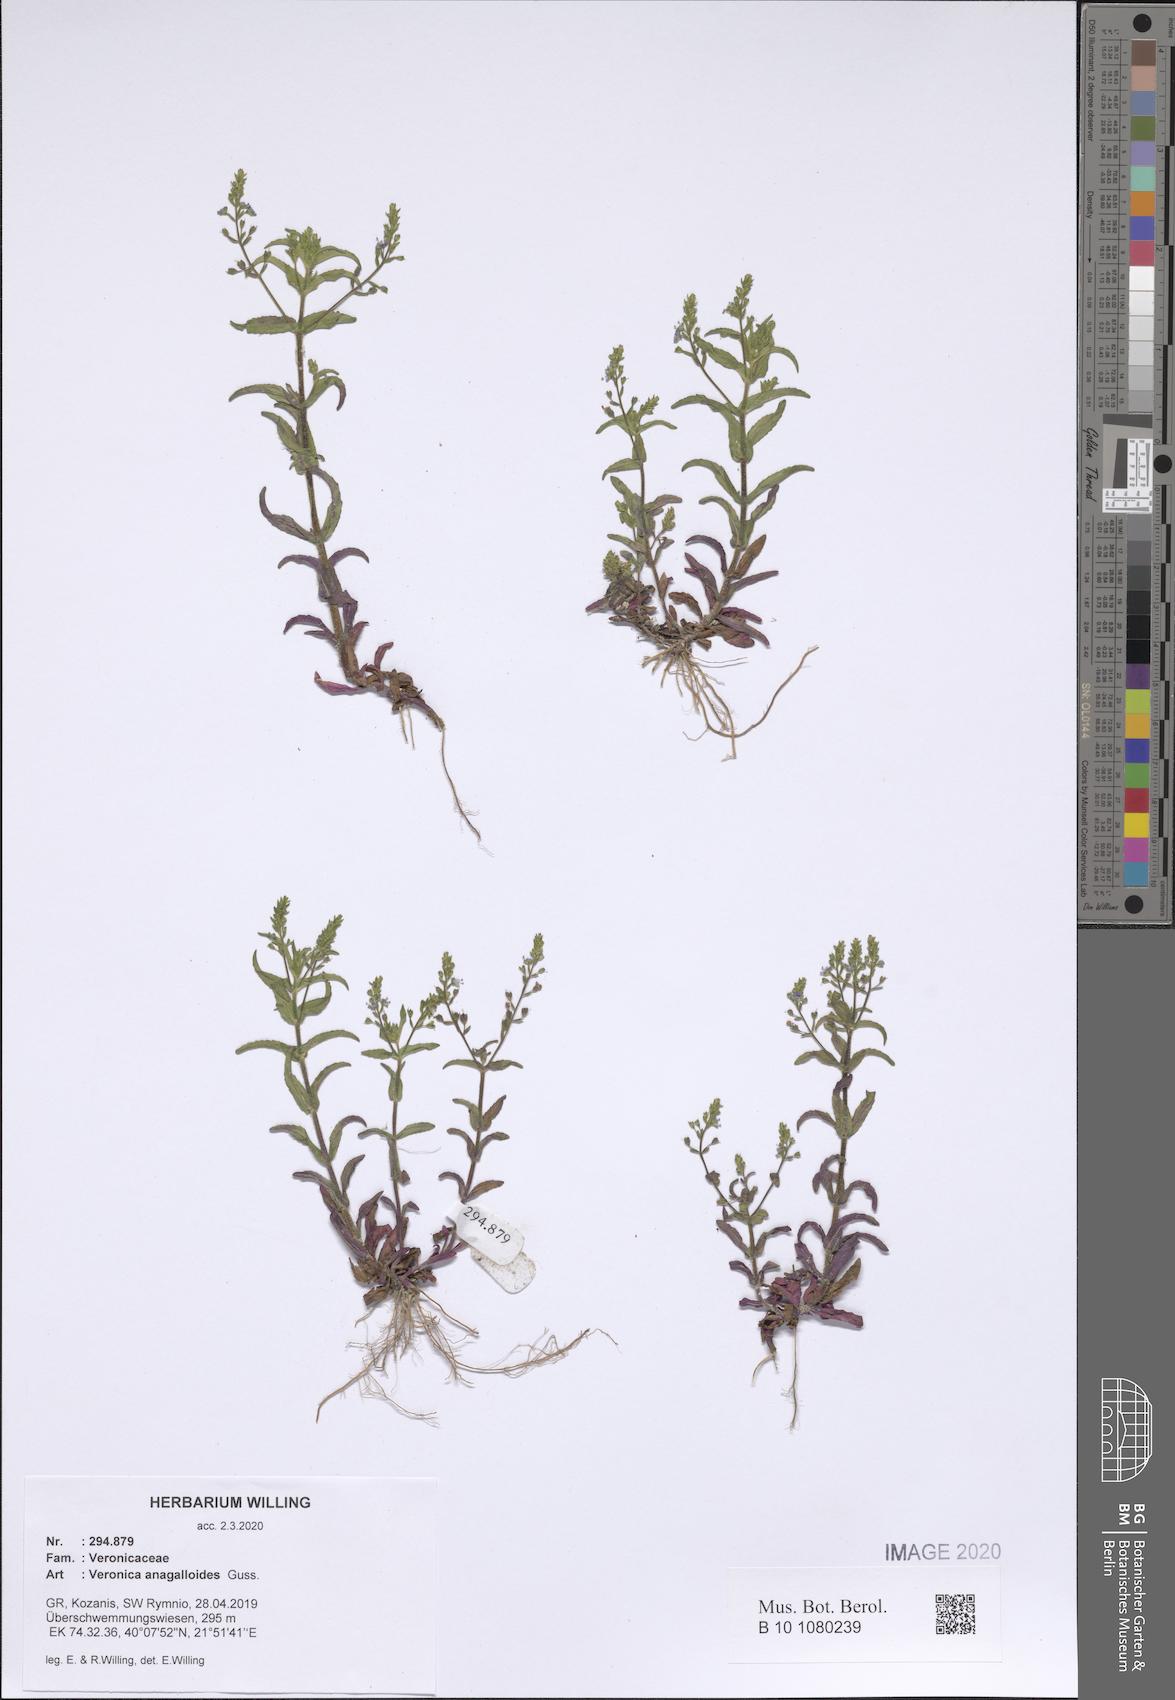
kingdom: Plantae
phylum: Tracheophyta
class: Magnoliopsida
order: Lamiales
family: Plantaginaceae
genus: Veronica
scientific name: Veronica anagalloides
